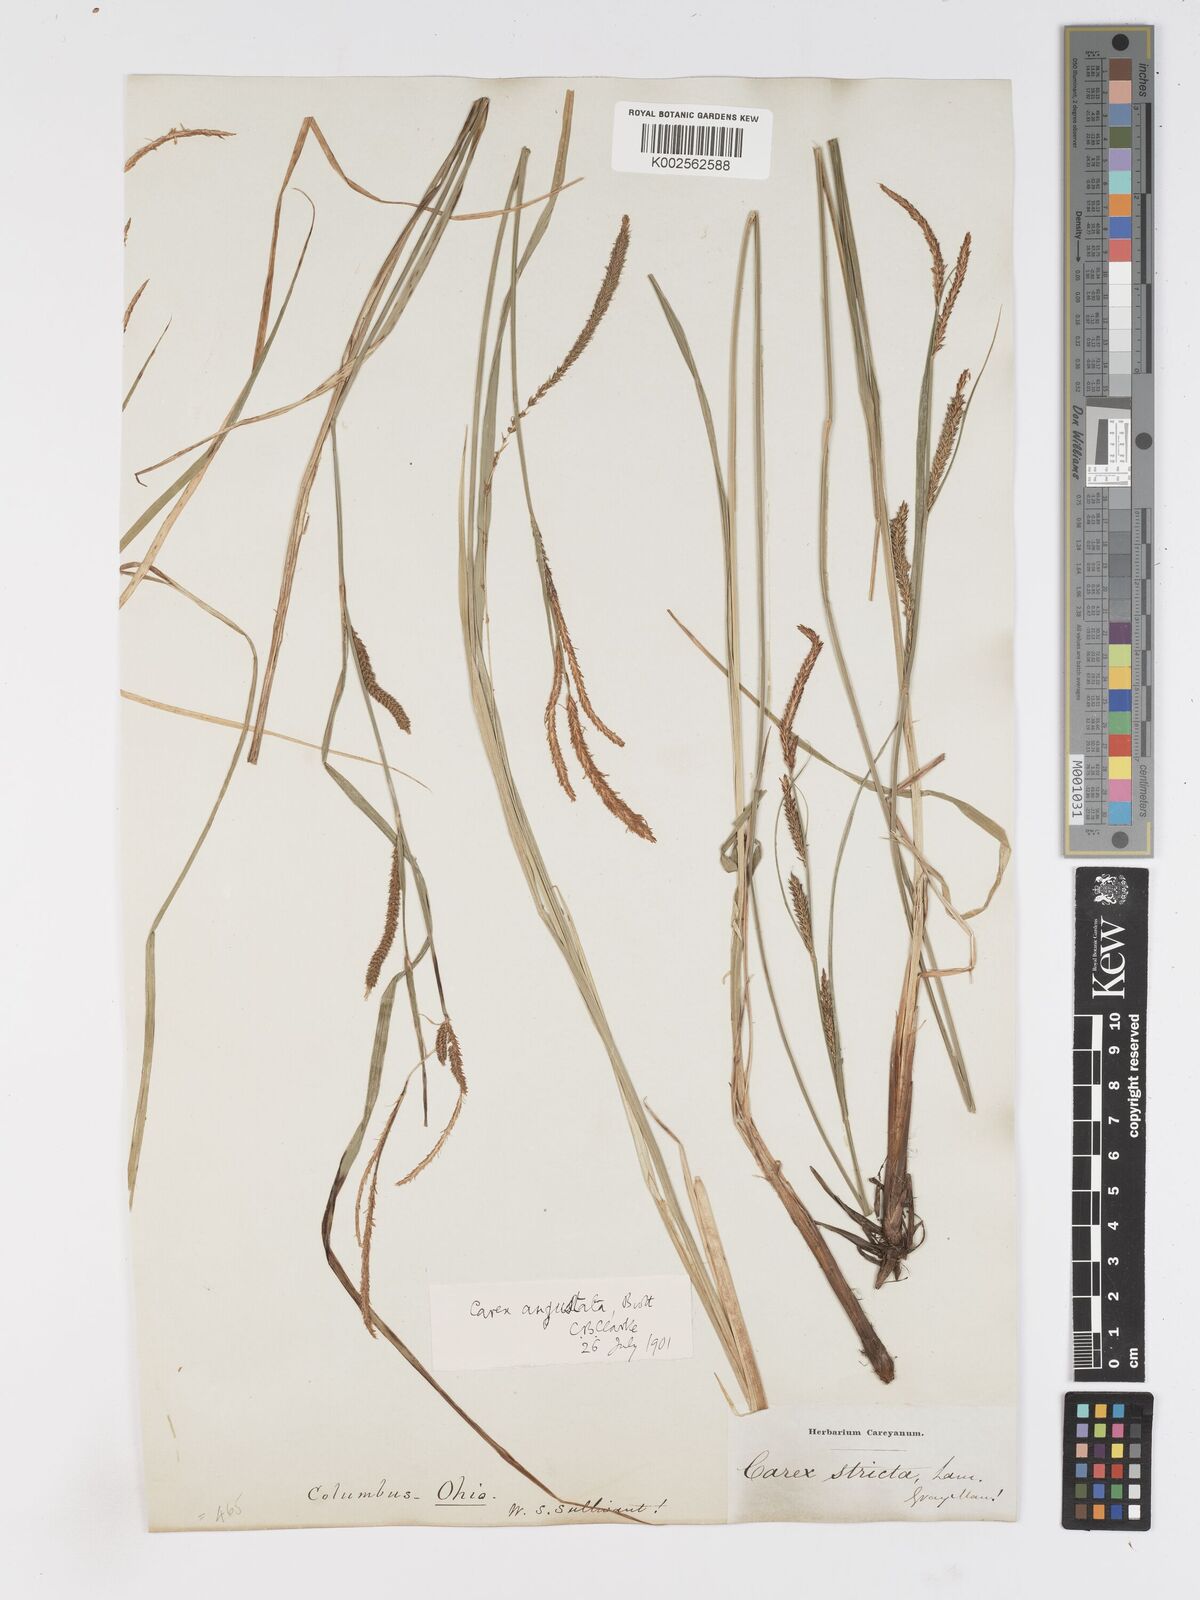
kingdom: Plantae
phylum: Tracheophyta
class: Liliopsida
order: Poales
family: Cyperaceae
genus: Carex
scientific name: Carex haydenii
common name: Hayden's sedge
